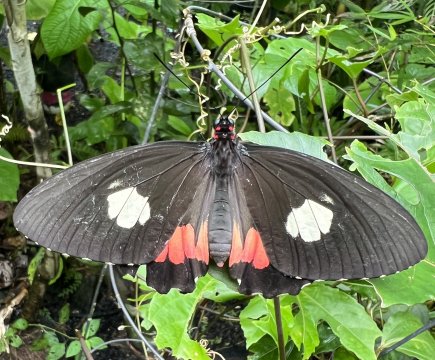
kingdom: Animalia
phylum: Arthropoda
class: Insecta
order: Lepidoptera
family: Papilionidae
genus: Parides
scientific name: Parides anchises
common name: Anchises Cattleheart
